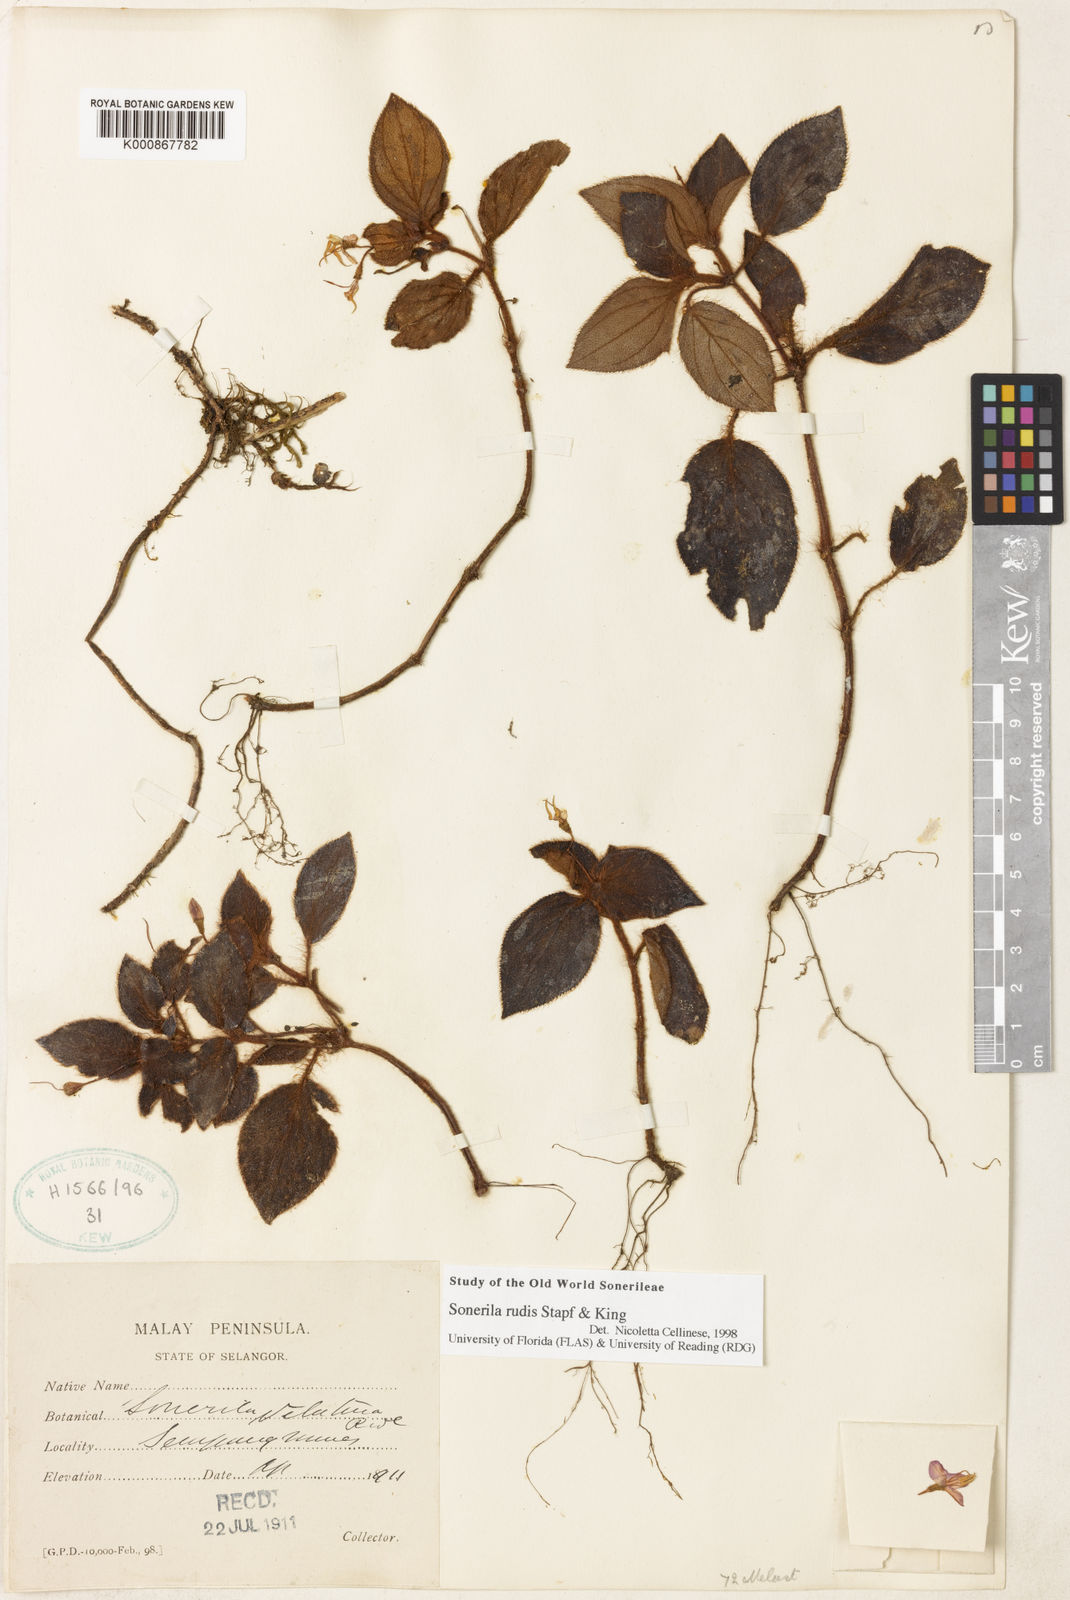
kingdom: Plantae
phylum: Tracheophyta
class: Magnoliopsida
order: Myrtales
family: Melastomataceae
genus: Sonerila
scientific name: Sonerila rudis
